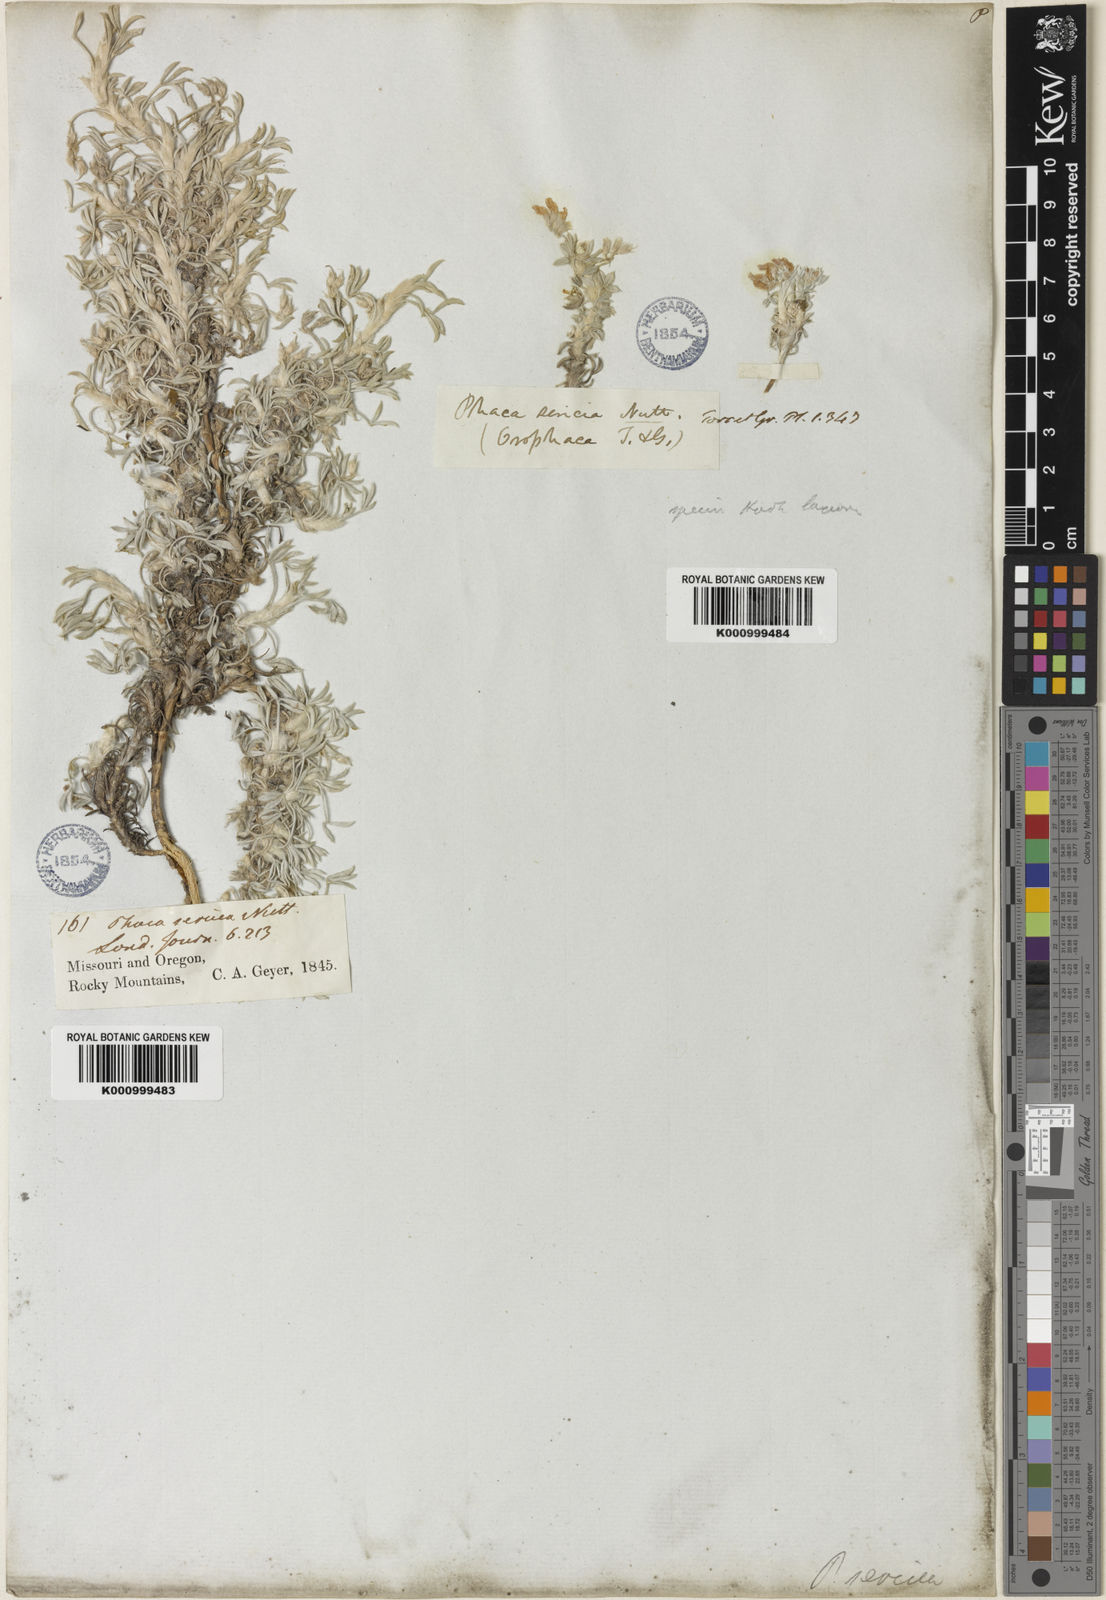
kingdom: Plantae
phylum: Tracheophyta
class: Magnoliopsida
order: Fabales
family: Fabaceae
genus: Astragalus
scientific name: Astragalus sericoleucus
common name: Silky orophaca
